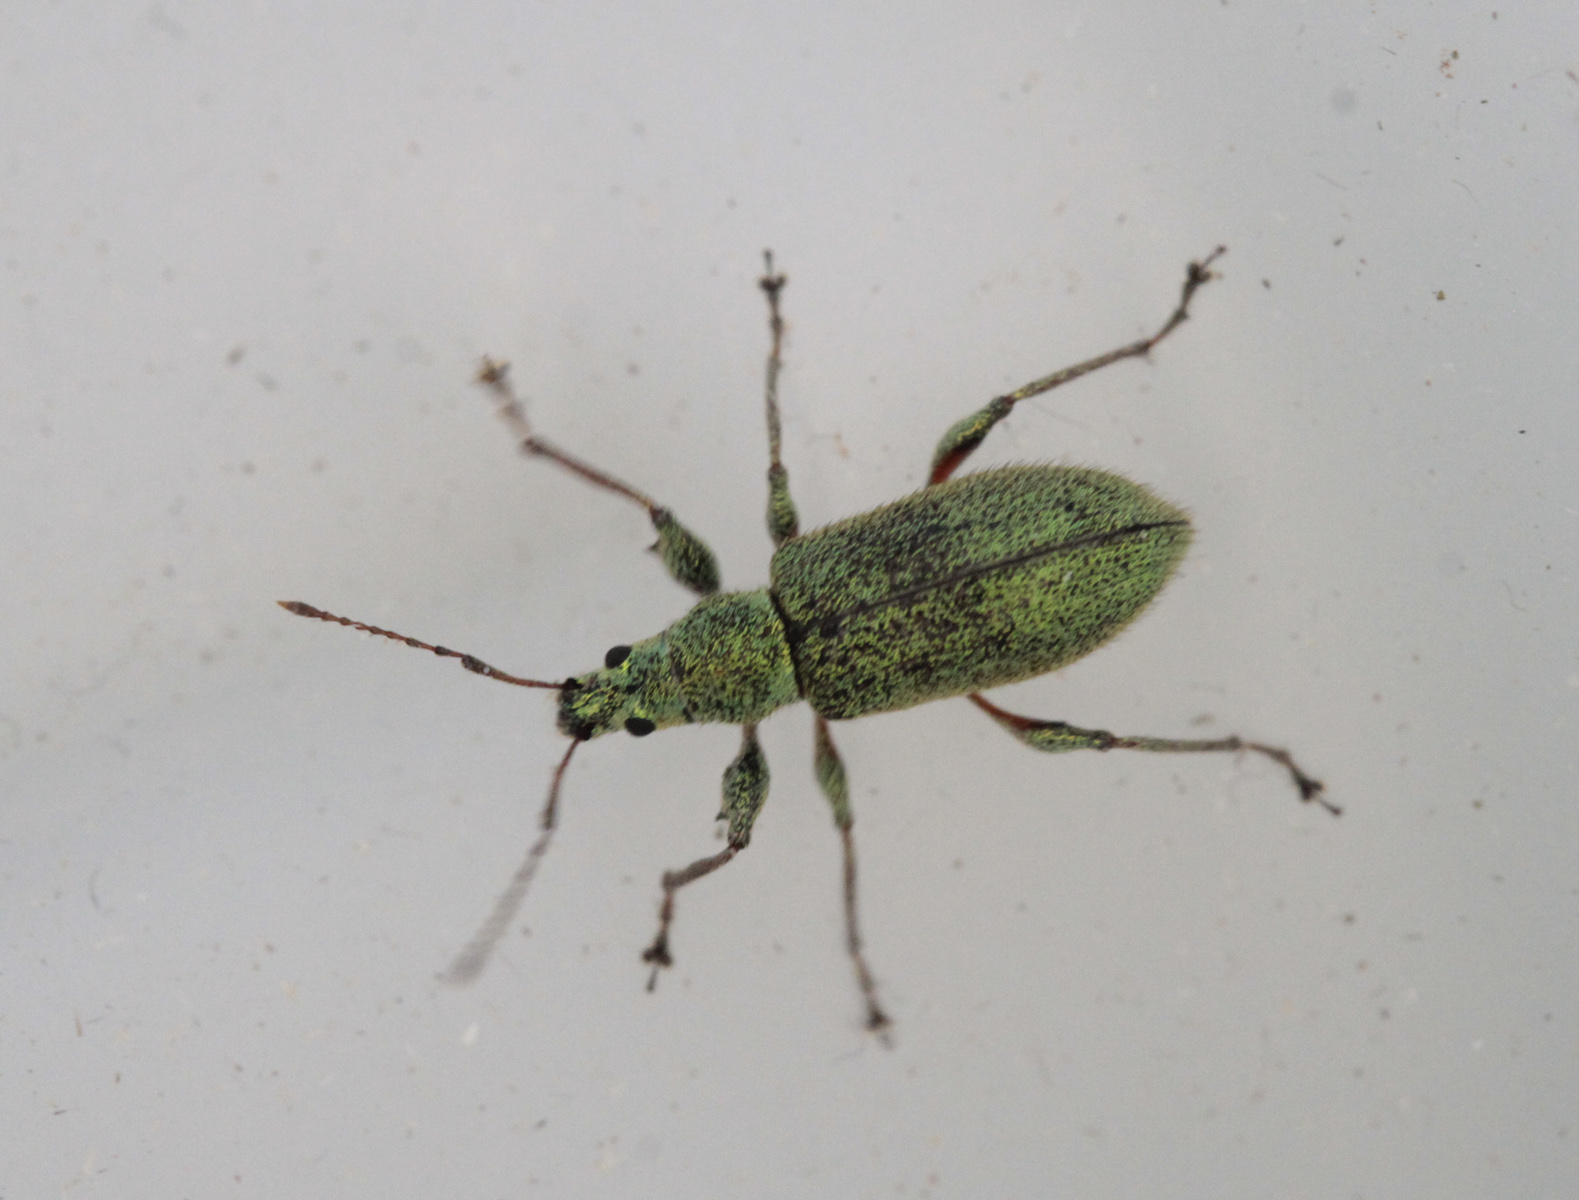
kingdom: Animalia
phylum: Arthropoda
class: Insecta
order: Coleoptera
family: Curculionidae
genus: Phyllobius
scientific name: Phyllobius argentatus
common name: Silver-green leaf weevil
